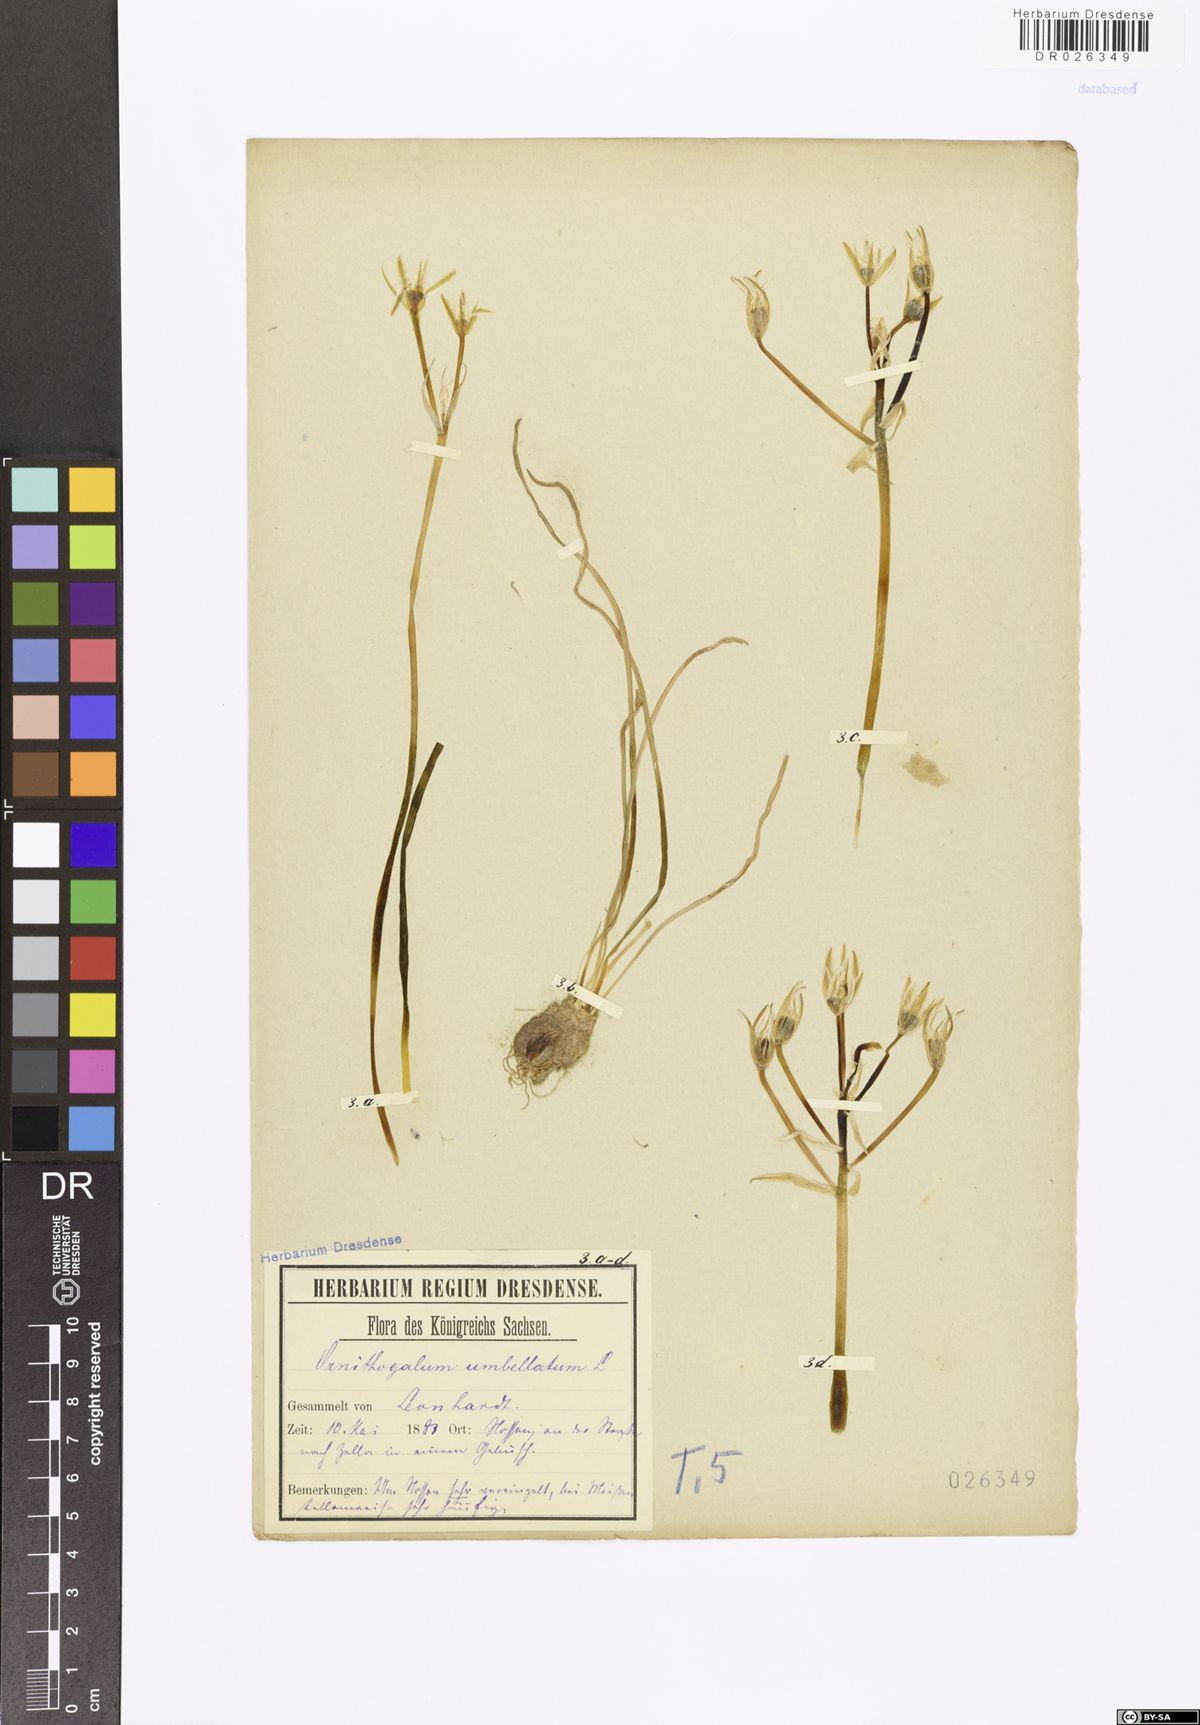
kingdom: Plantae
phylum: Tracheophyta
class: Liliopsida
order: Asparagales
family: Asparagaceae
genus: Ornithogalum
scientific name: Ornithogalum umbellatum
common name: Garden star-of-bethlehem
